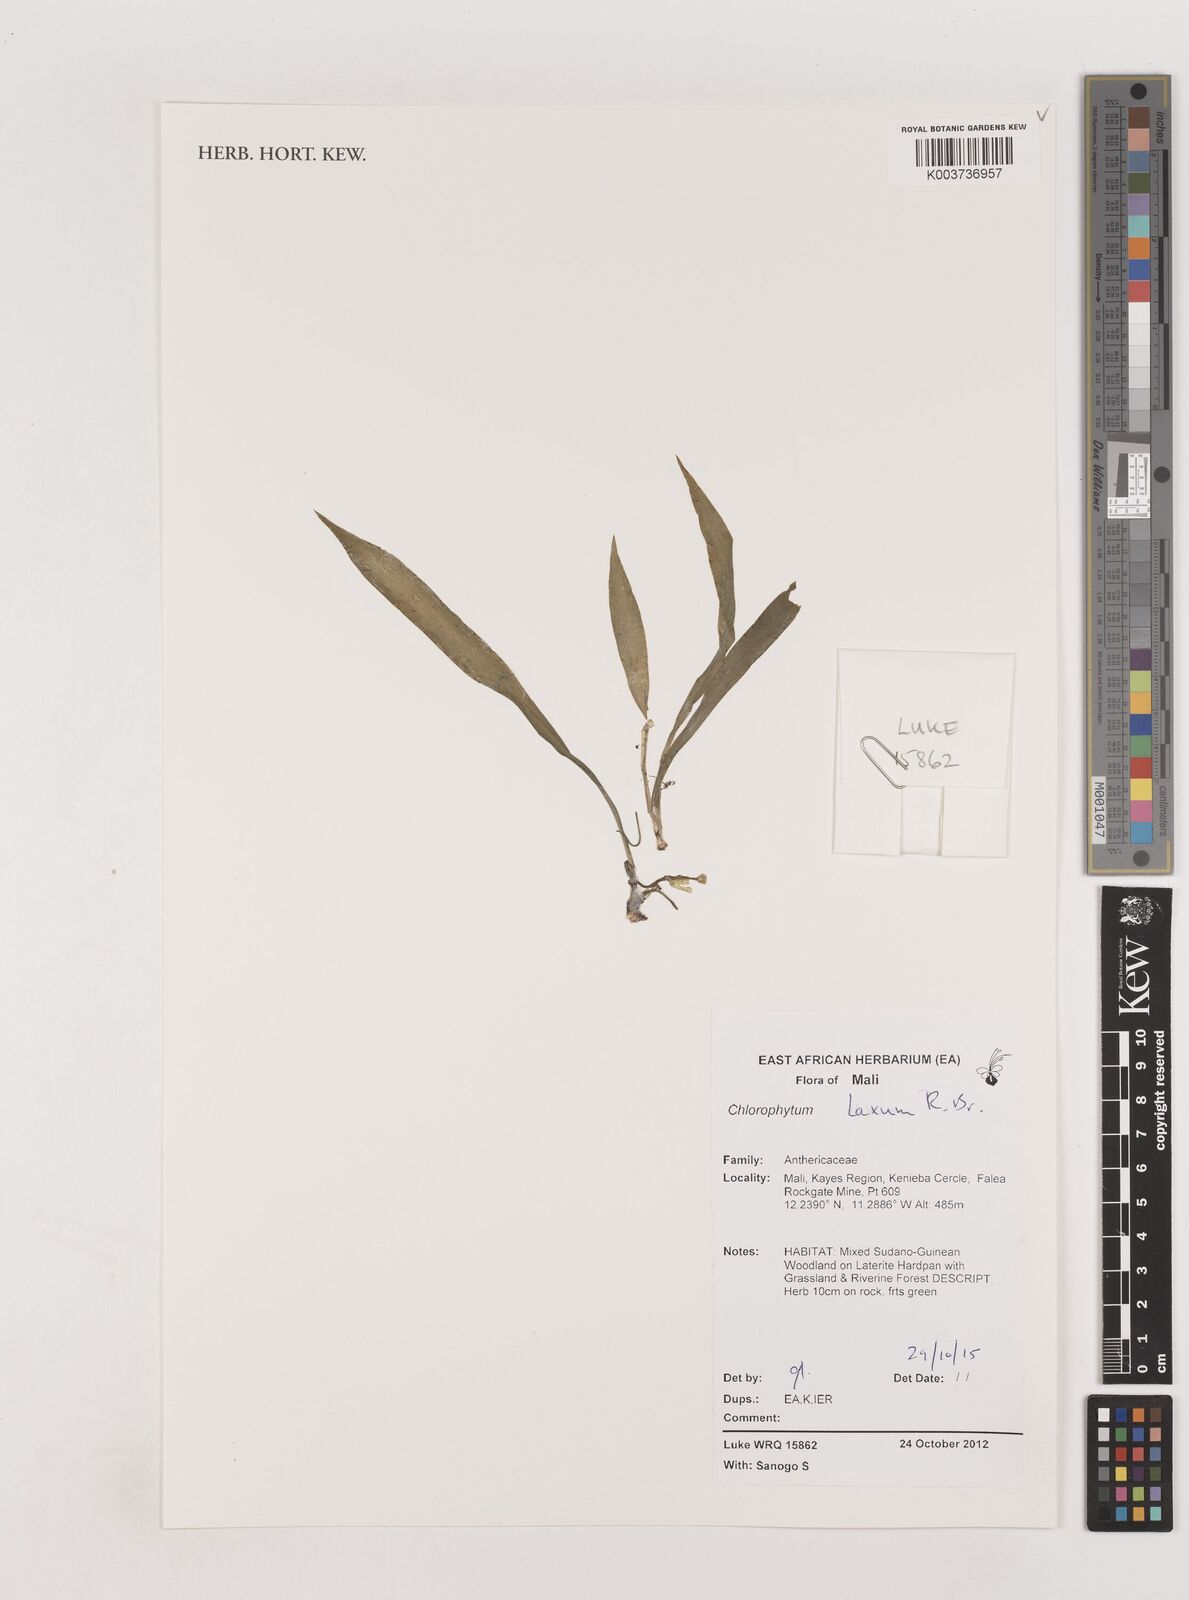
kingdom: Plantae
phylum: Tracheophyta
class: Liliopsida
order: Asparagales
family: Asparagaceae
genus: Chlorophytum
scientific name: Chlorophytum laxum
